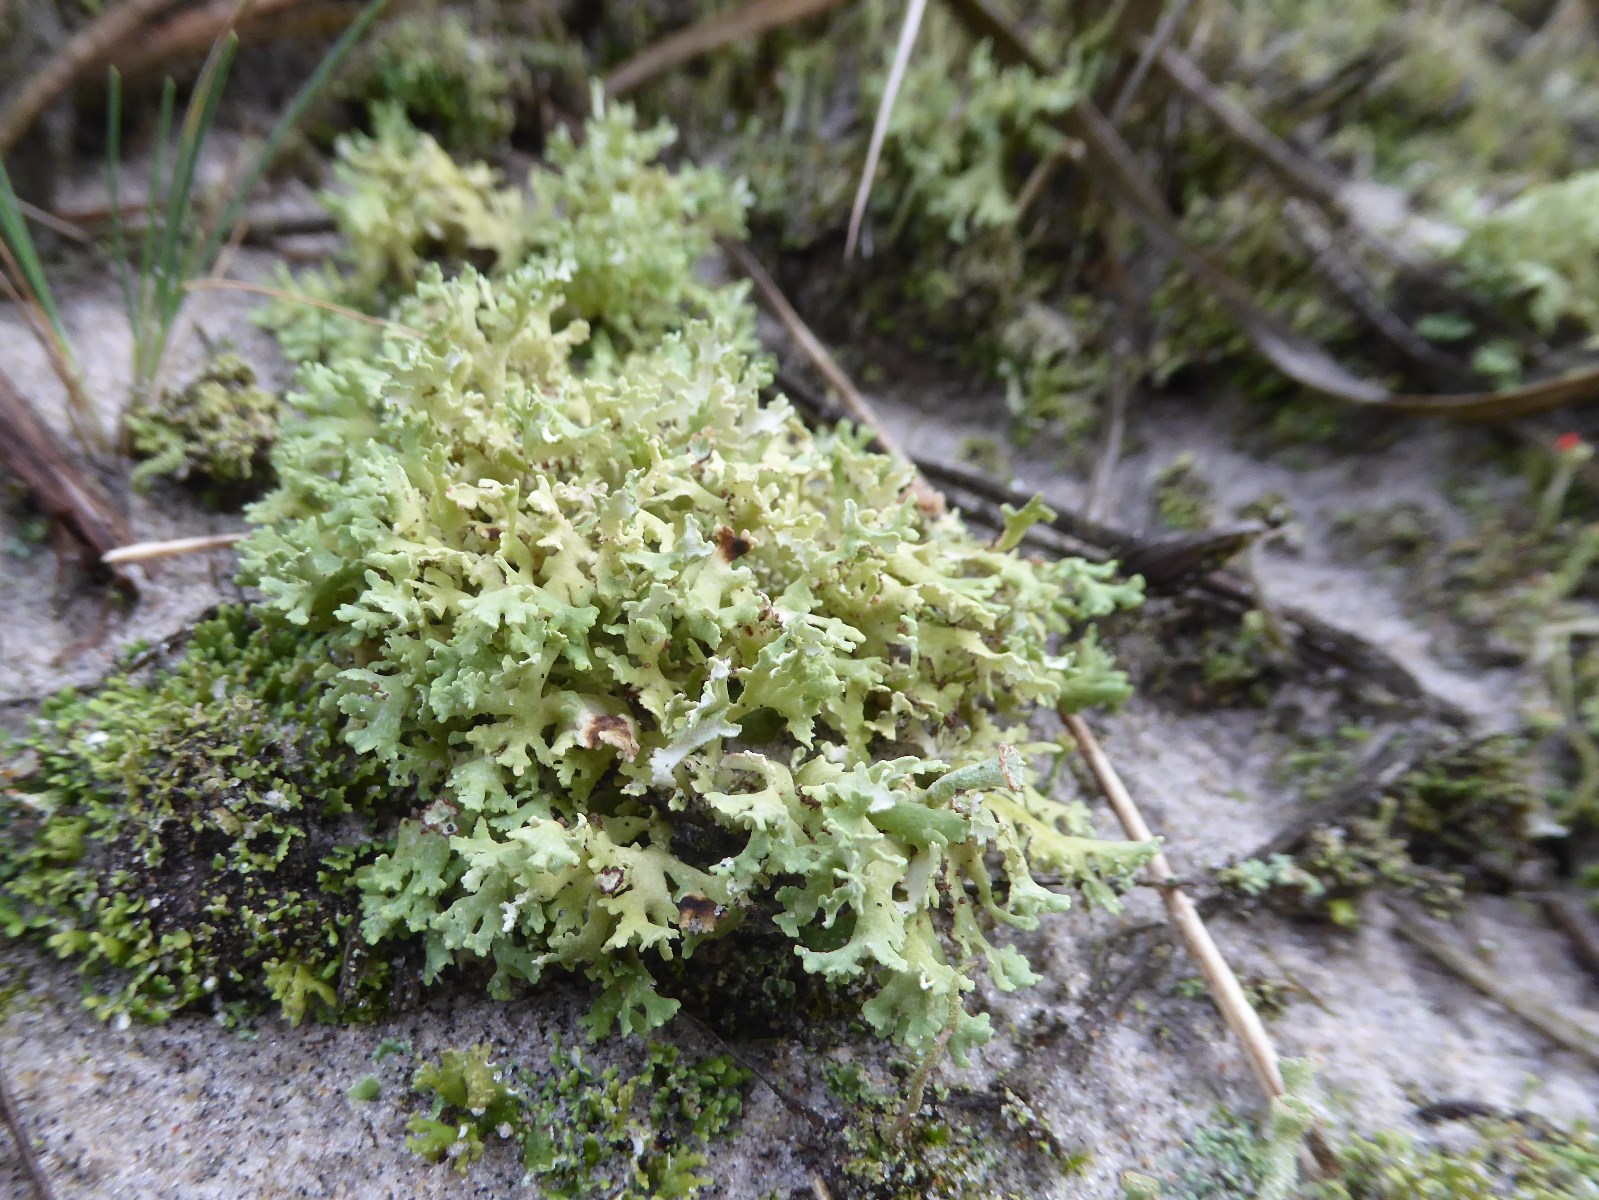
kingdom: Fungi
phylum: Ascomycota
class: Lecanoromycetes
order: Lecanorales
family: Cladoniaceae
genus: Cladonia
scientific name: Cladonia foliacea
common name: fliget bægerlav
